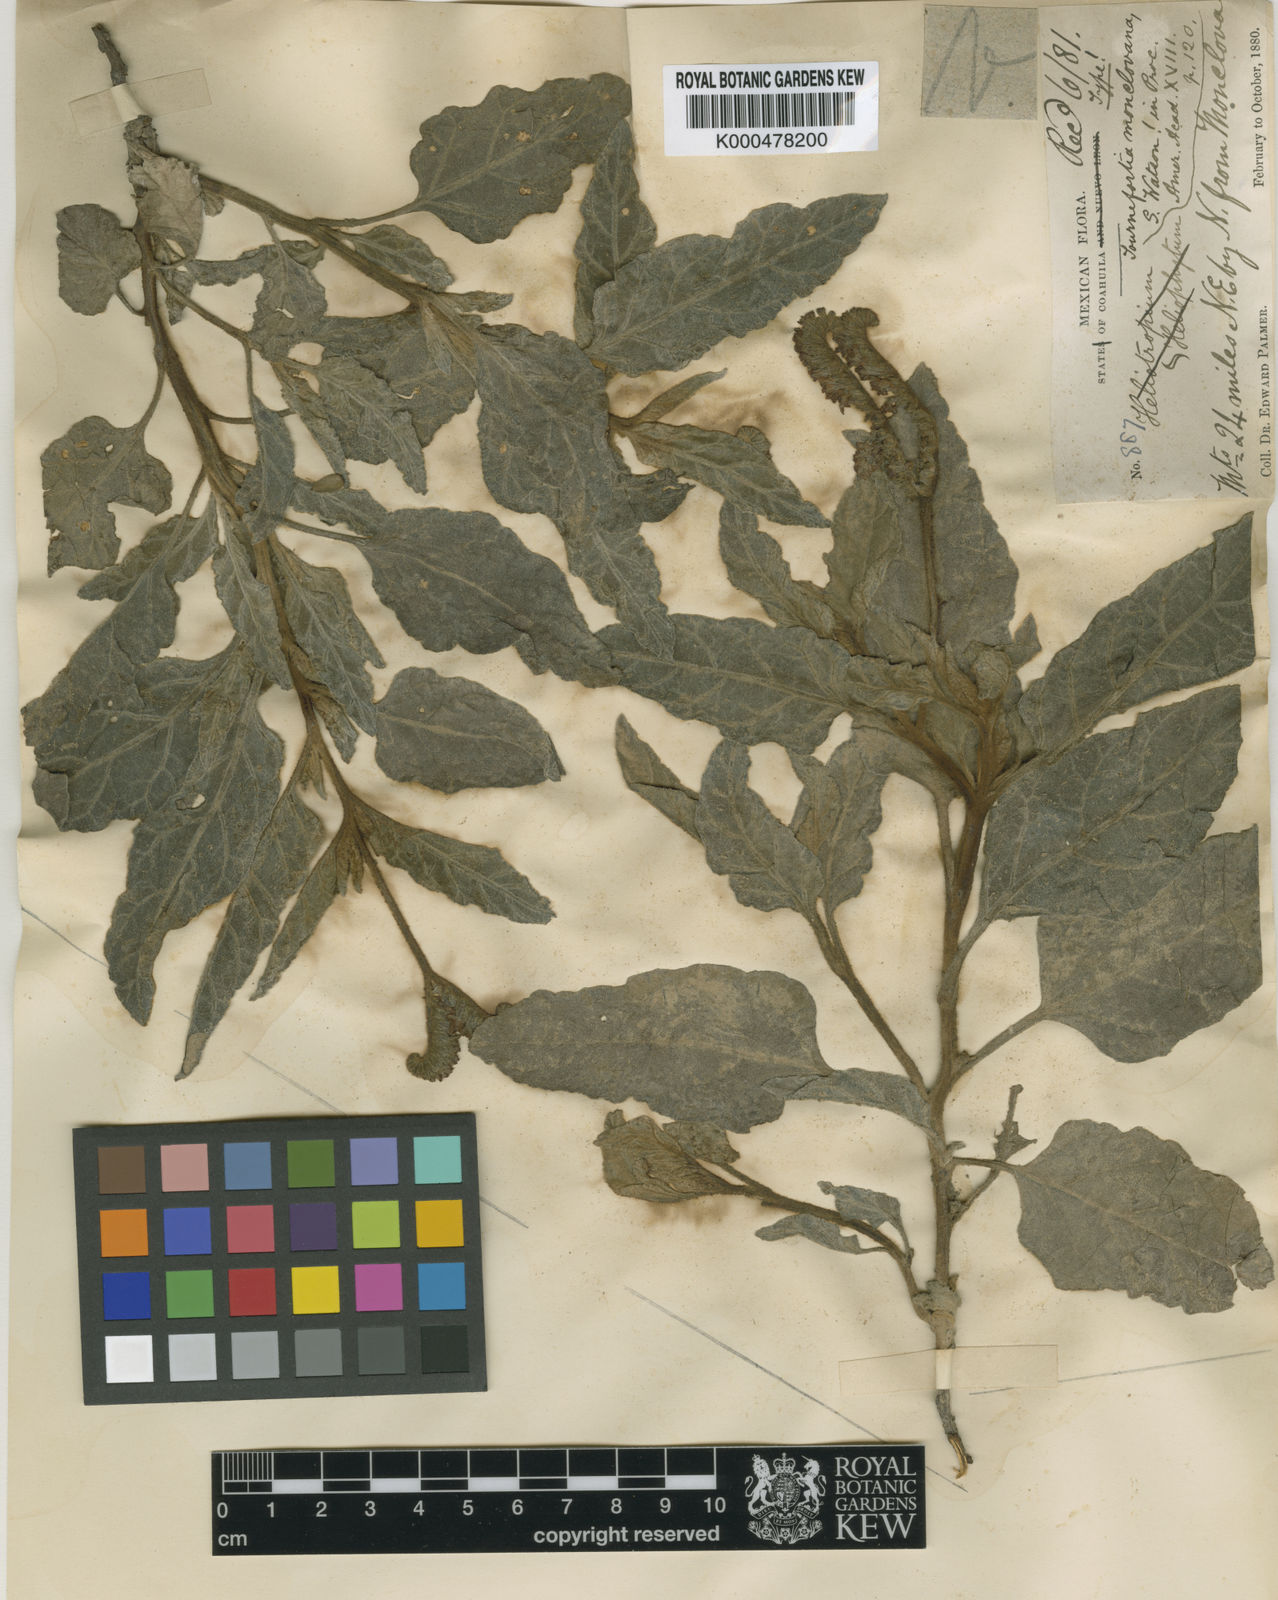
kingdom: Plantae
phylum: Tracheophyta
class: Magnoliopsida
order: Boraginales
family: Heliotropiaceae
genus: Heliotropium
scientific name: Heliotropium molle
